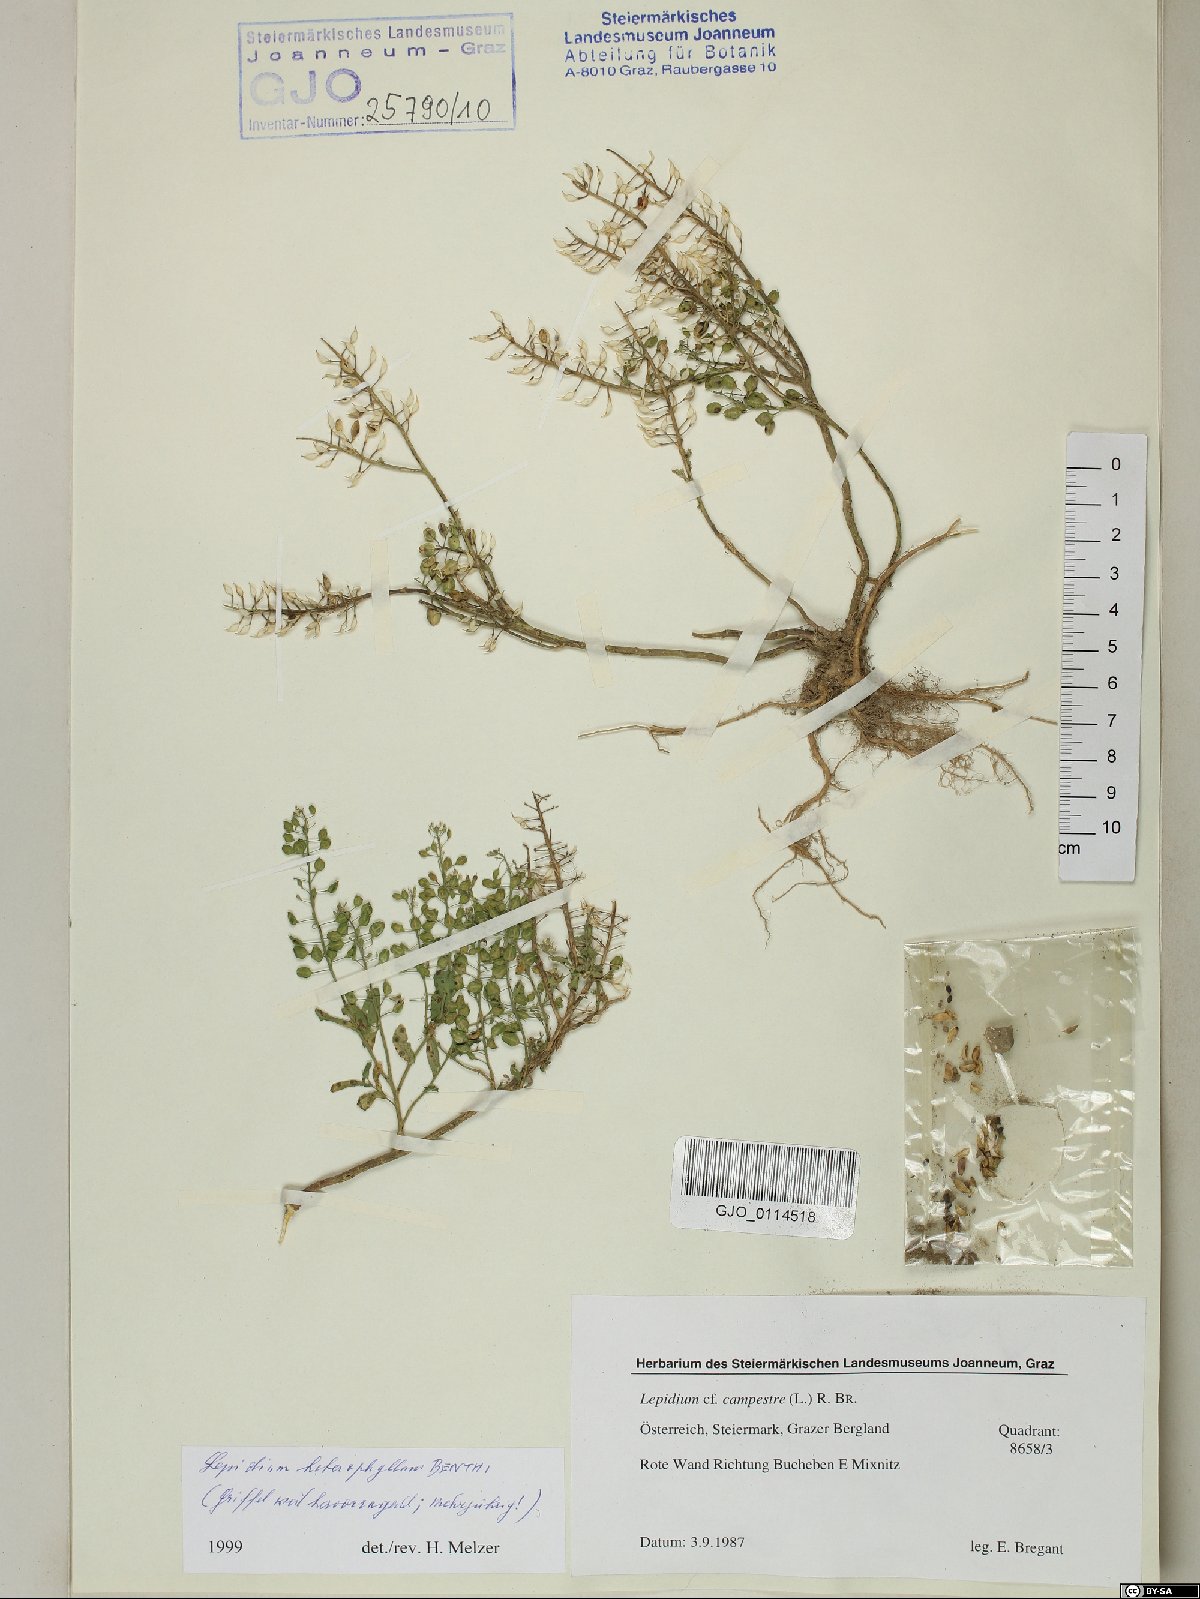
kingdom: Plantae
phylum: Tracheophyta
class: Magnoliopsida
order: Brassicales
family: Brassicaceae
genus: Lepidium
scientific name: Lepidium heterophyllum
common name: Smith's pepperwort
